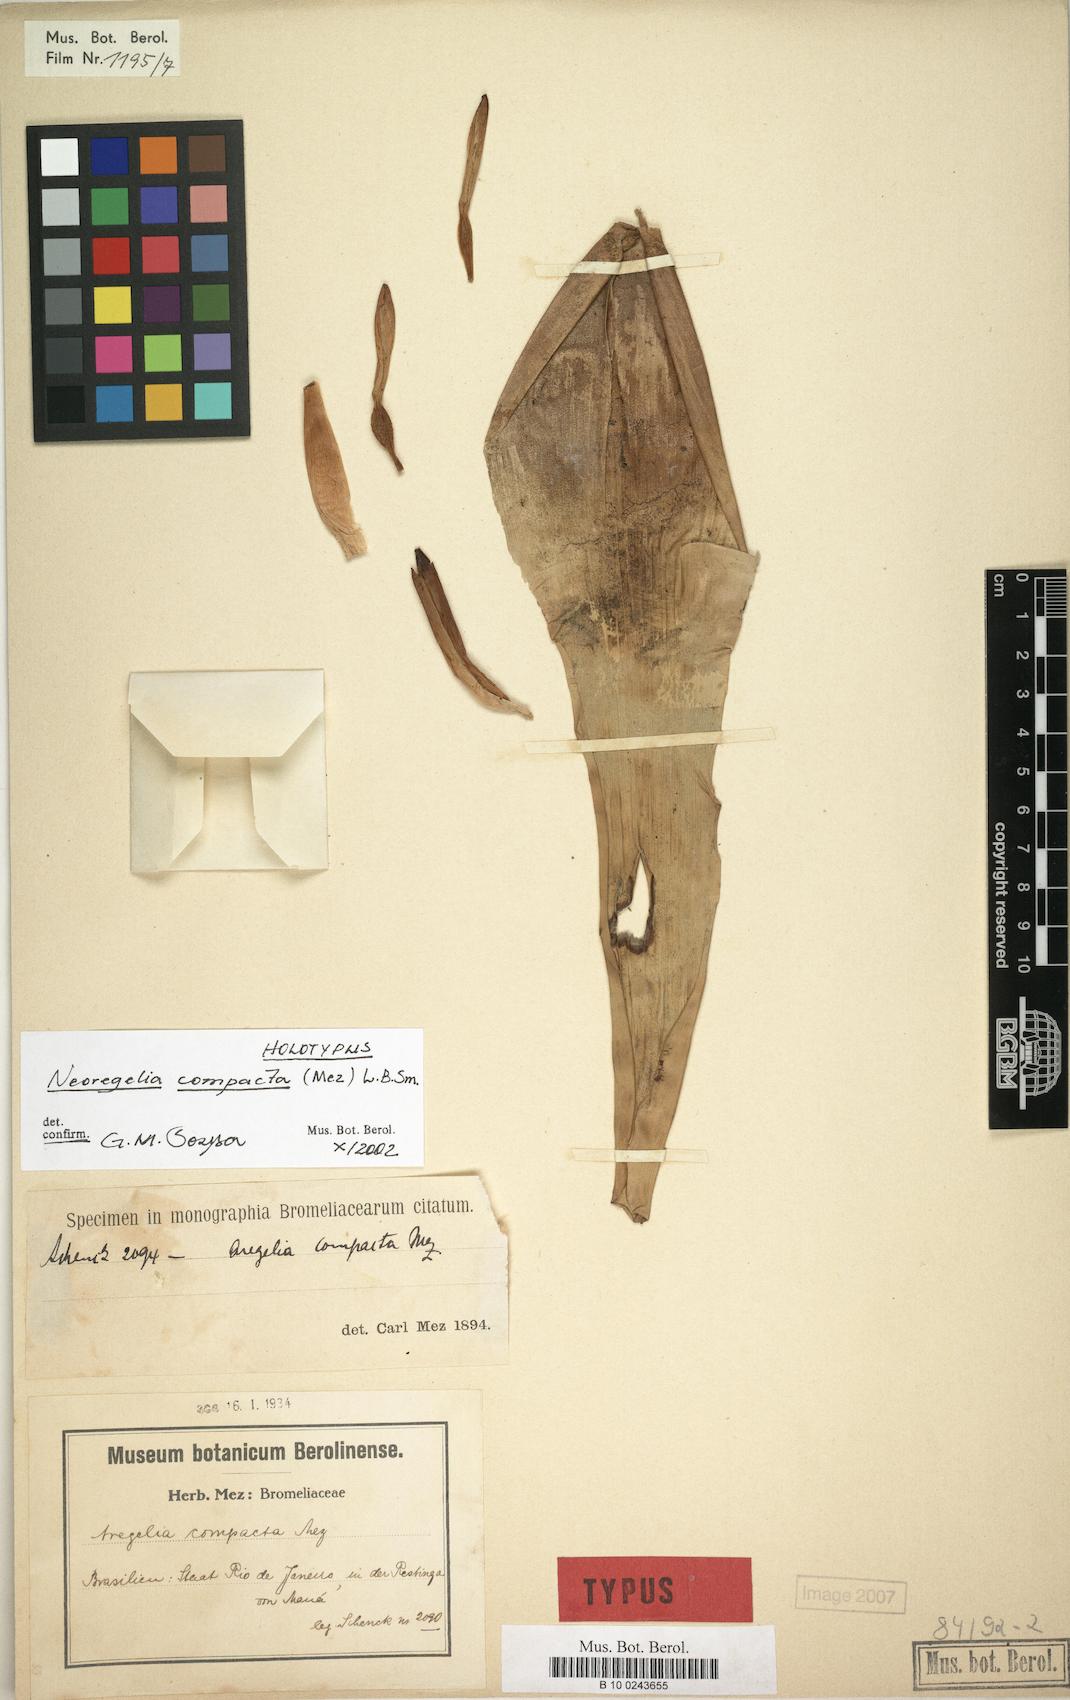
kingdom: Plantae
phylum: Tracheophyta
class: Liliopsida
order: Poales
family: Bromeliaceae
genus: Neoregelia
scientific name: Neoregelia compacta
